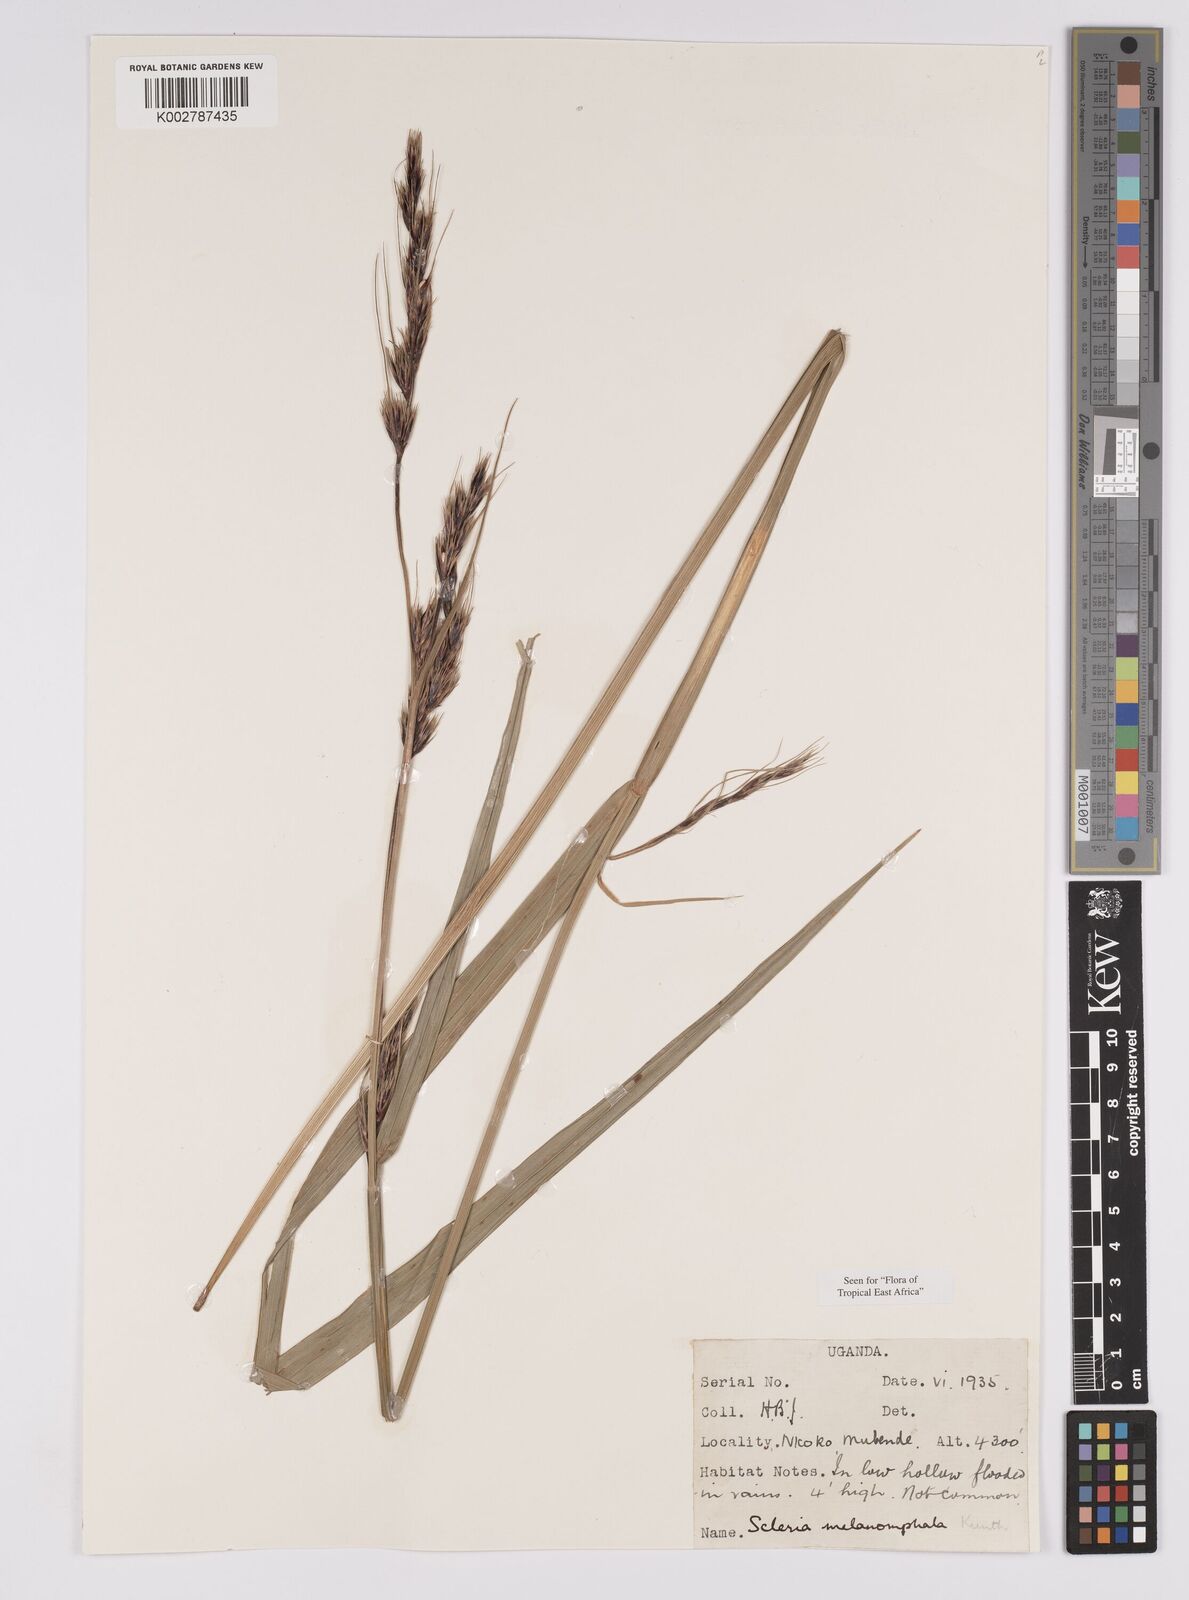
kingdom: Plantae
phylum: Tracheophyta
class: Liliopsida
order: Poales
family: Cyperaceae
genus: Scleria
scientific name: Scleria melanomphala
